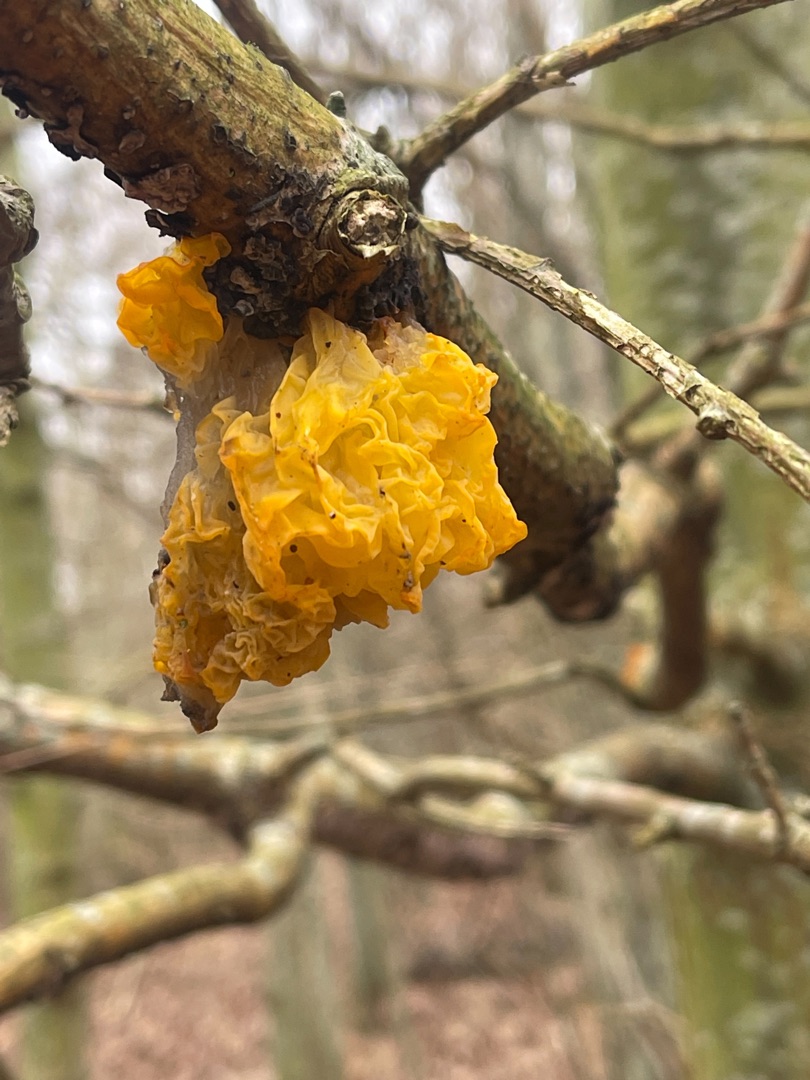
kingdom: Fungi
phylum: Basidiomycota
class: Tremellomycetes
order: Tremellales
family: Tremellaceae
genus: Tremella
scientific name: Tremella mesenterica
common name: Gul bævresvamp
